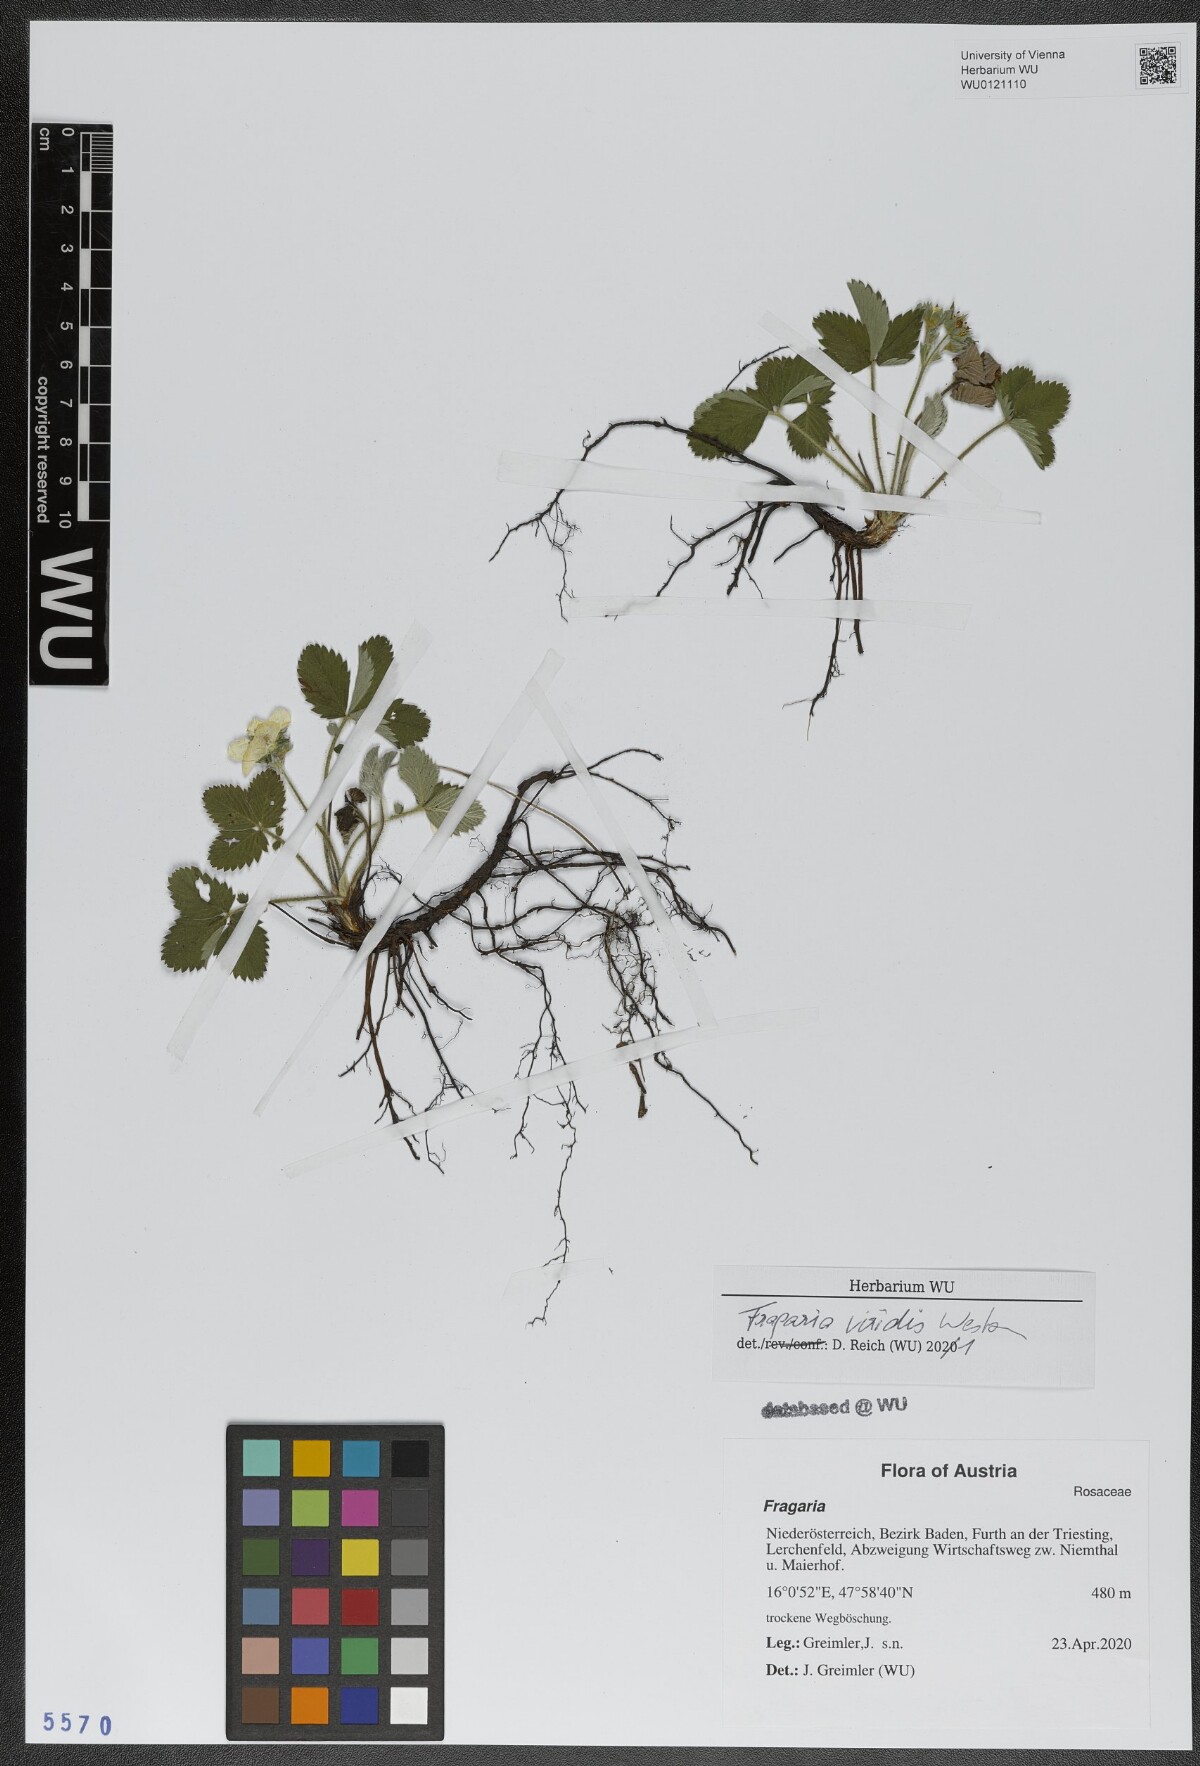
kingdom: Plantae
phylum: Tracheophyta
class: Magnoliopsida
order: Rosales
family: Rosaceae
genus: Fragaria
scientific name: Fragaria viridis
